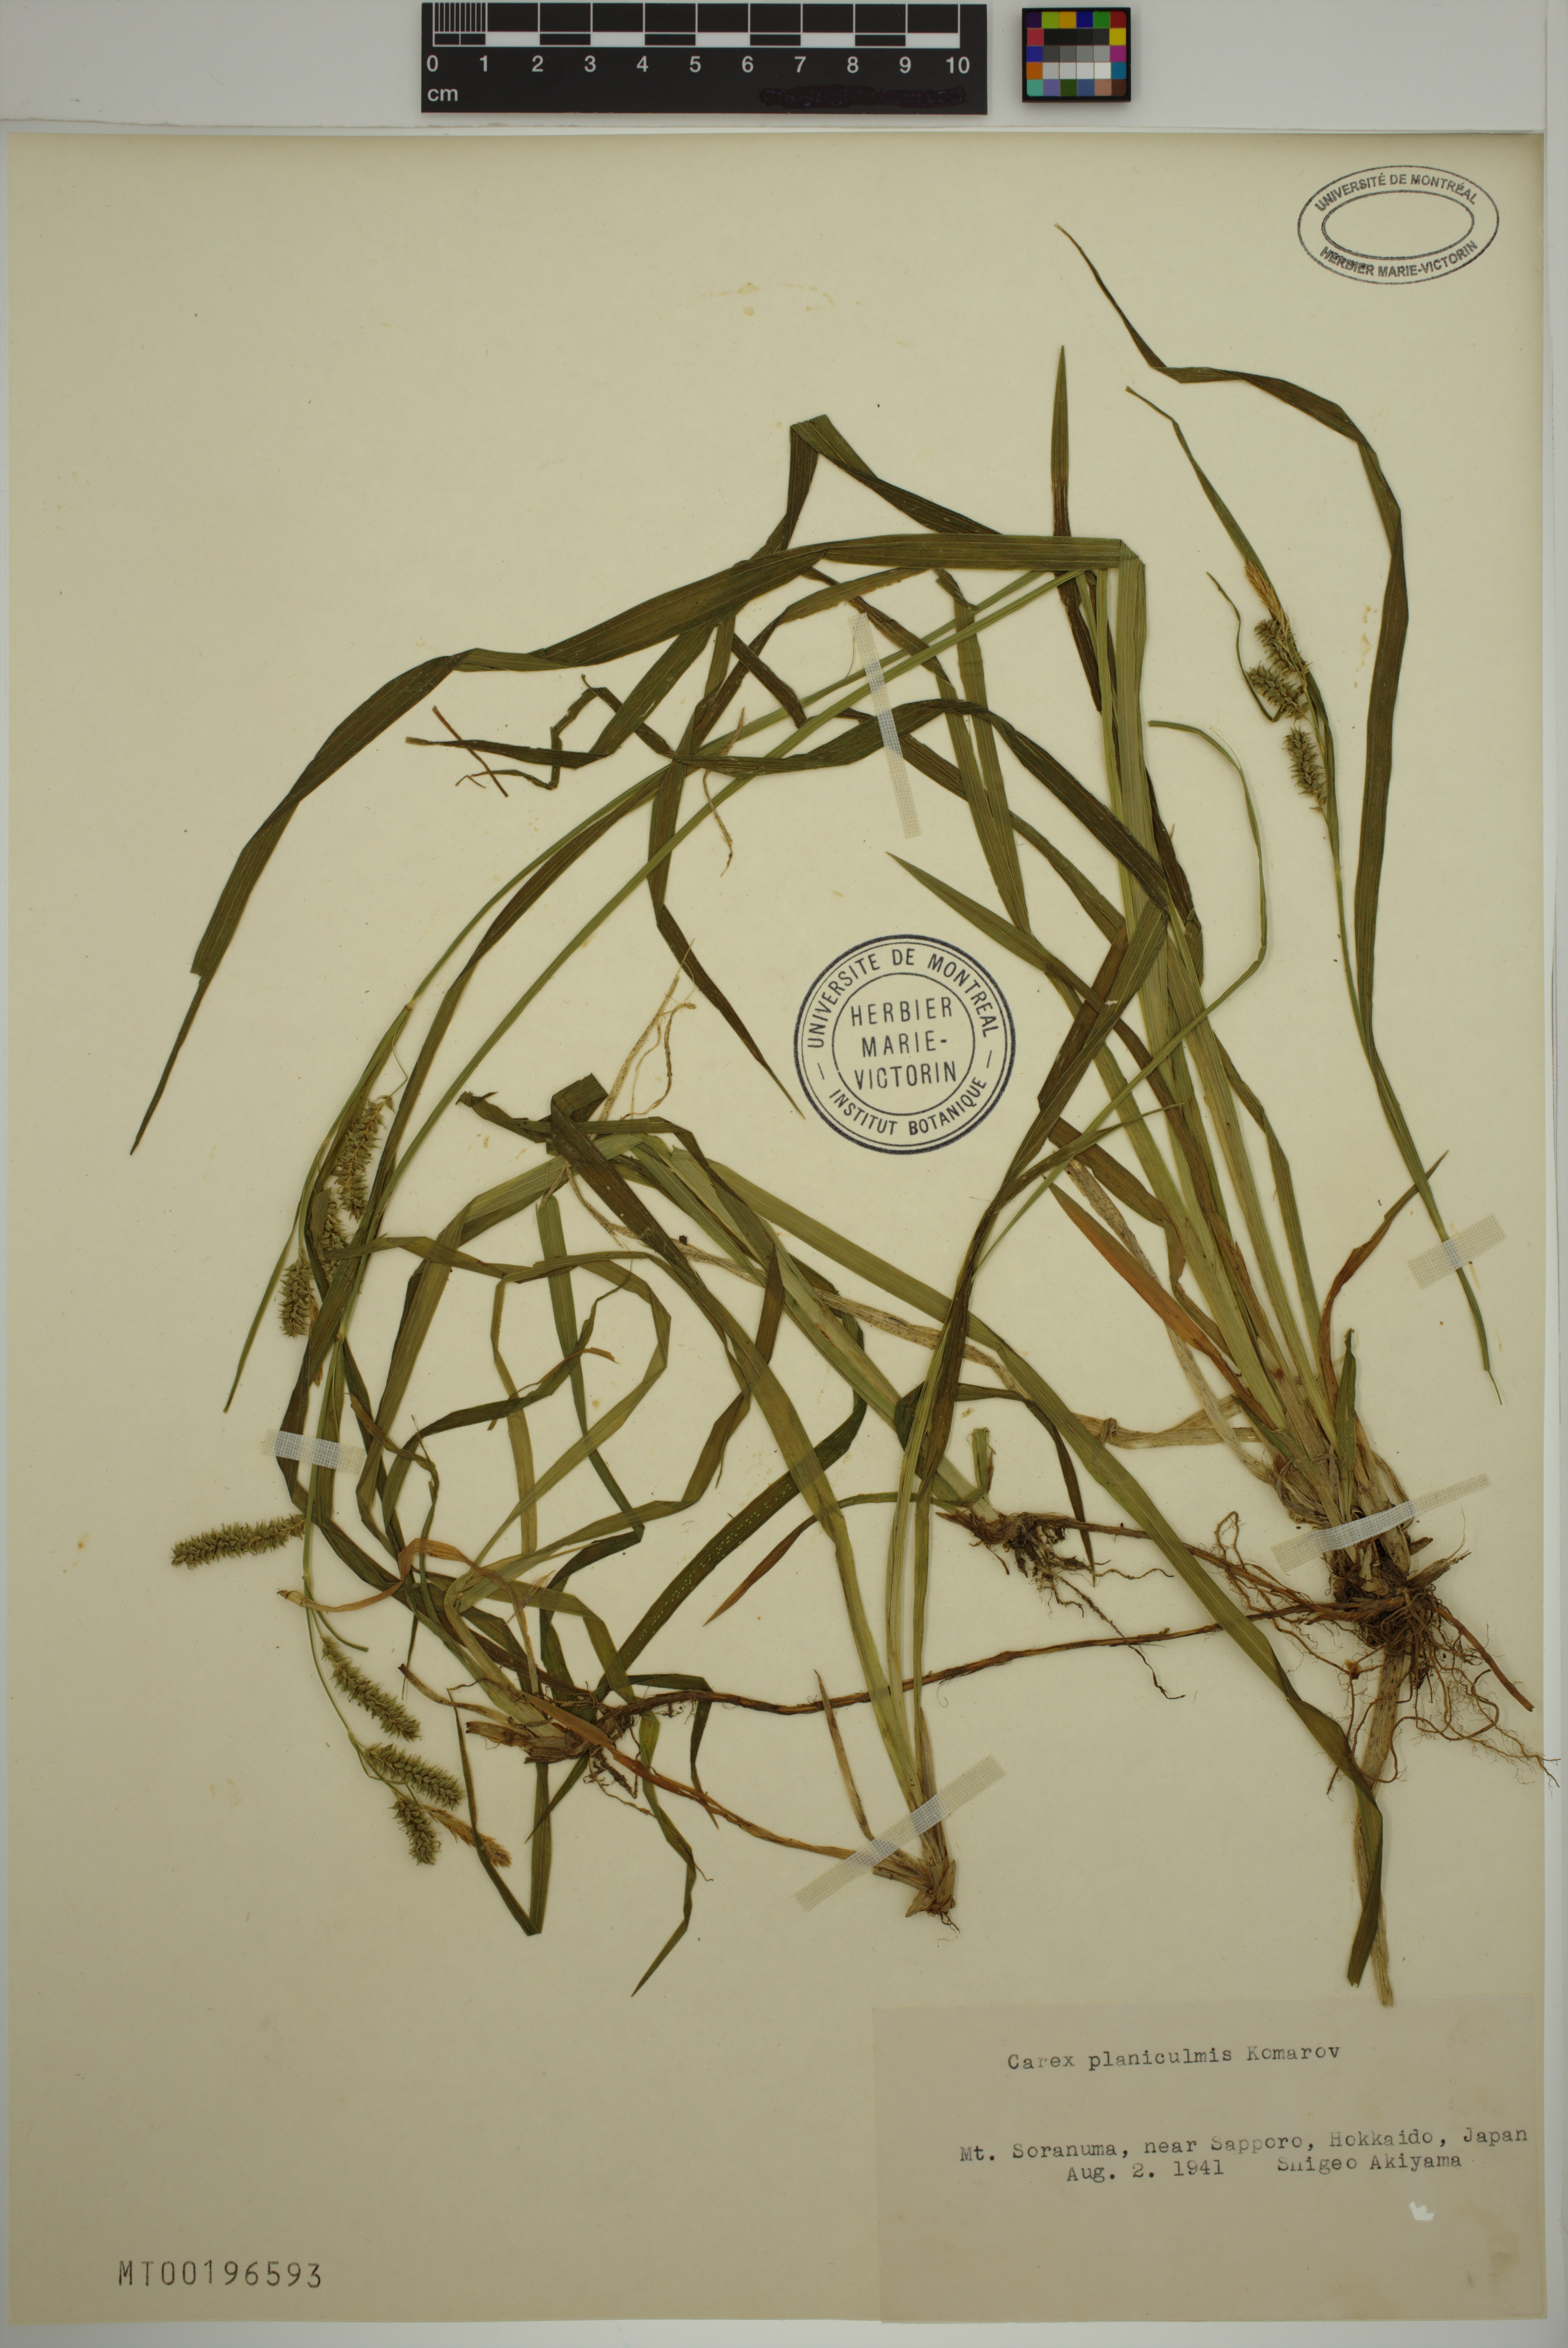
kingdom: Plantae
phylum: Tracheophyta
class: Liliopsida
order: Poales
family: Cyperaceae
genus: Carex
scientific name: Carex planiculmis
